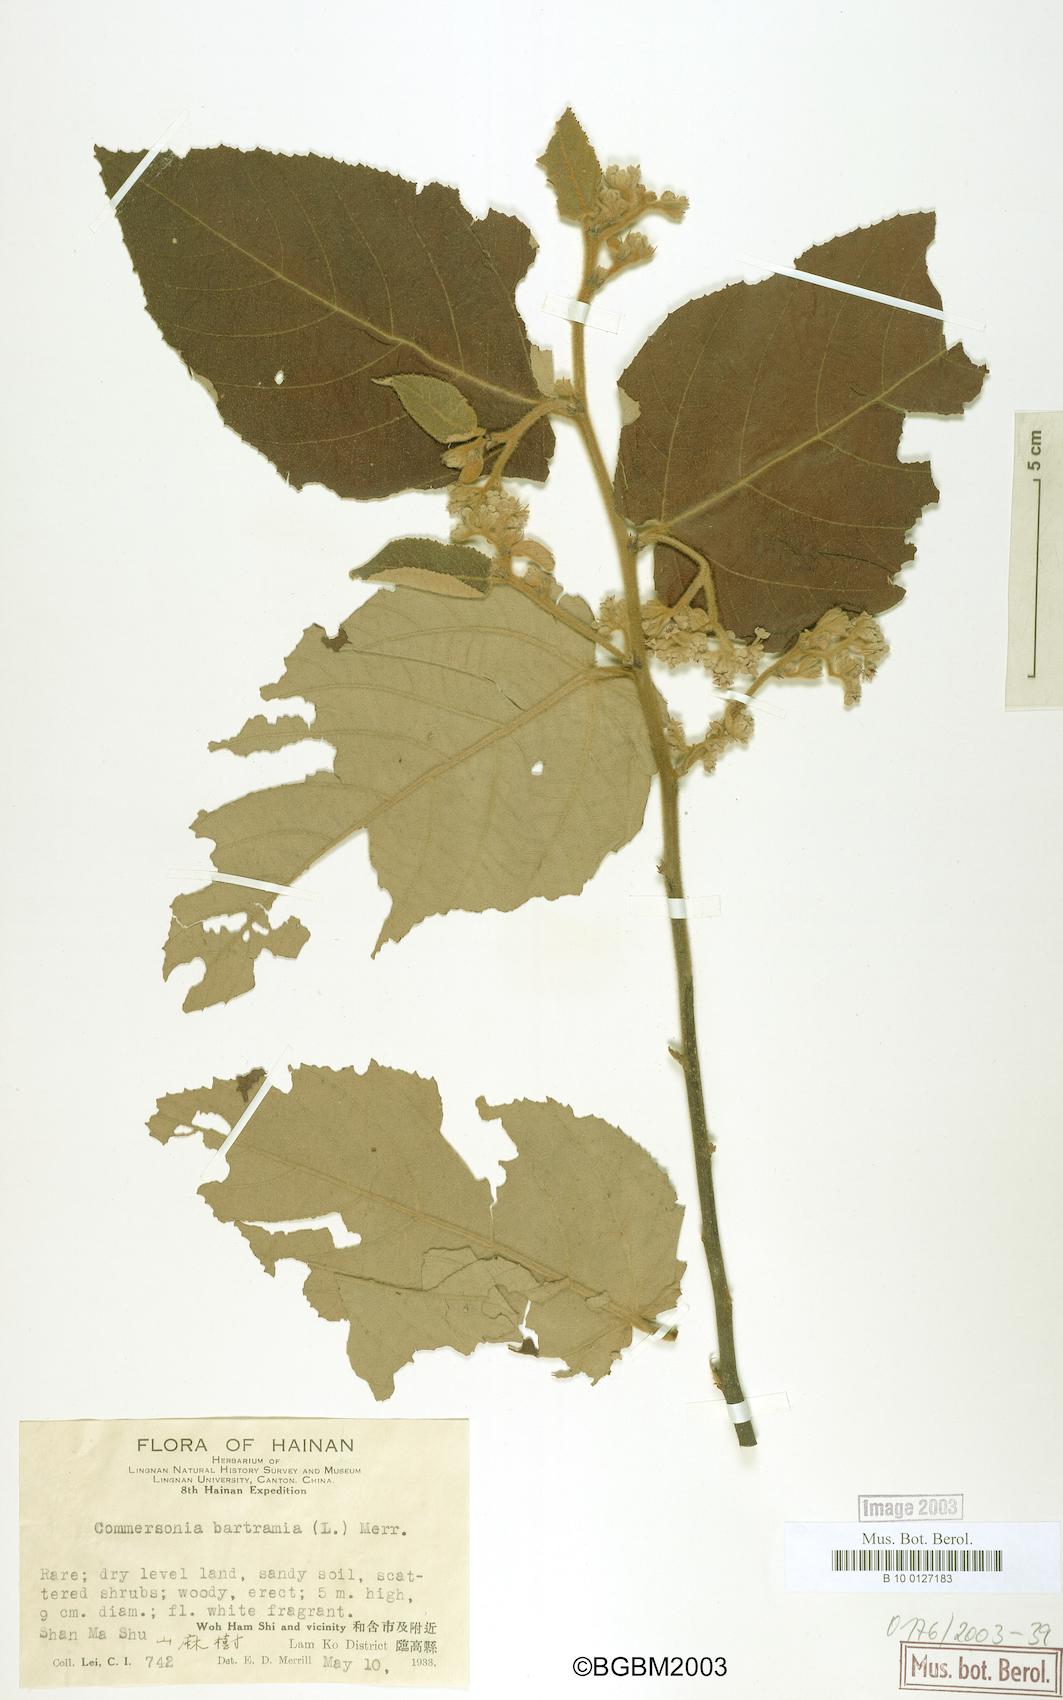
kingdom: Plantae
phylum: Tracheophyta
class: Magnoliopsida
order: Malvales
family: Malvaceae
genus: Commersonia
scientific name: Commersonia bartramia
